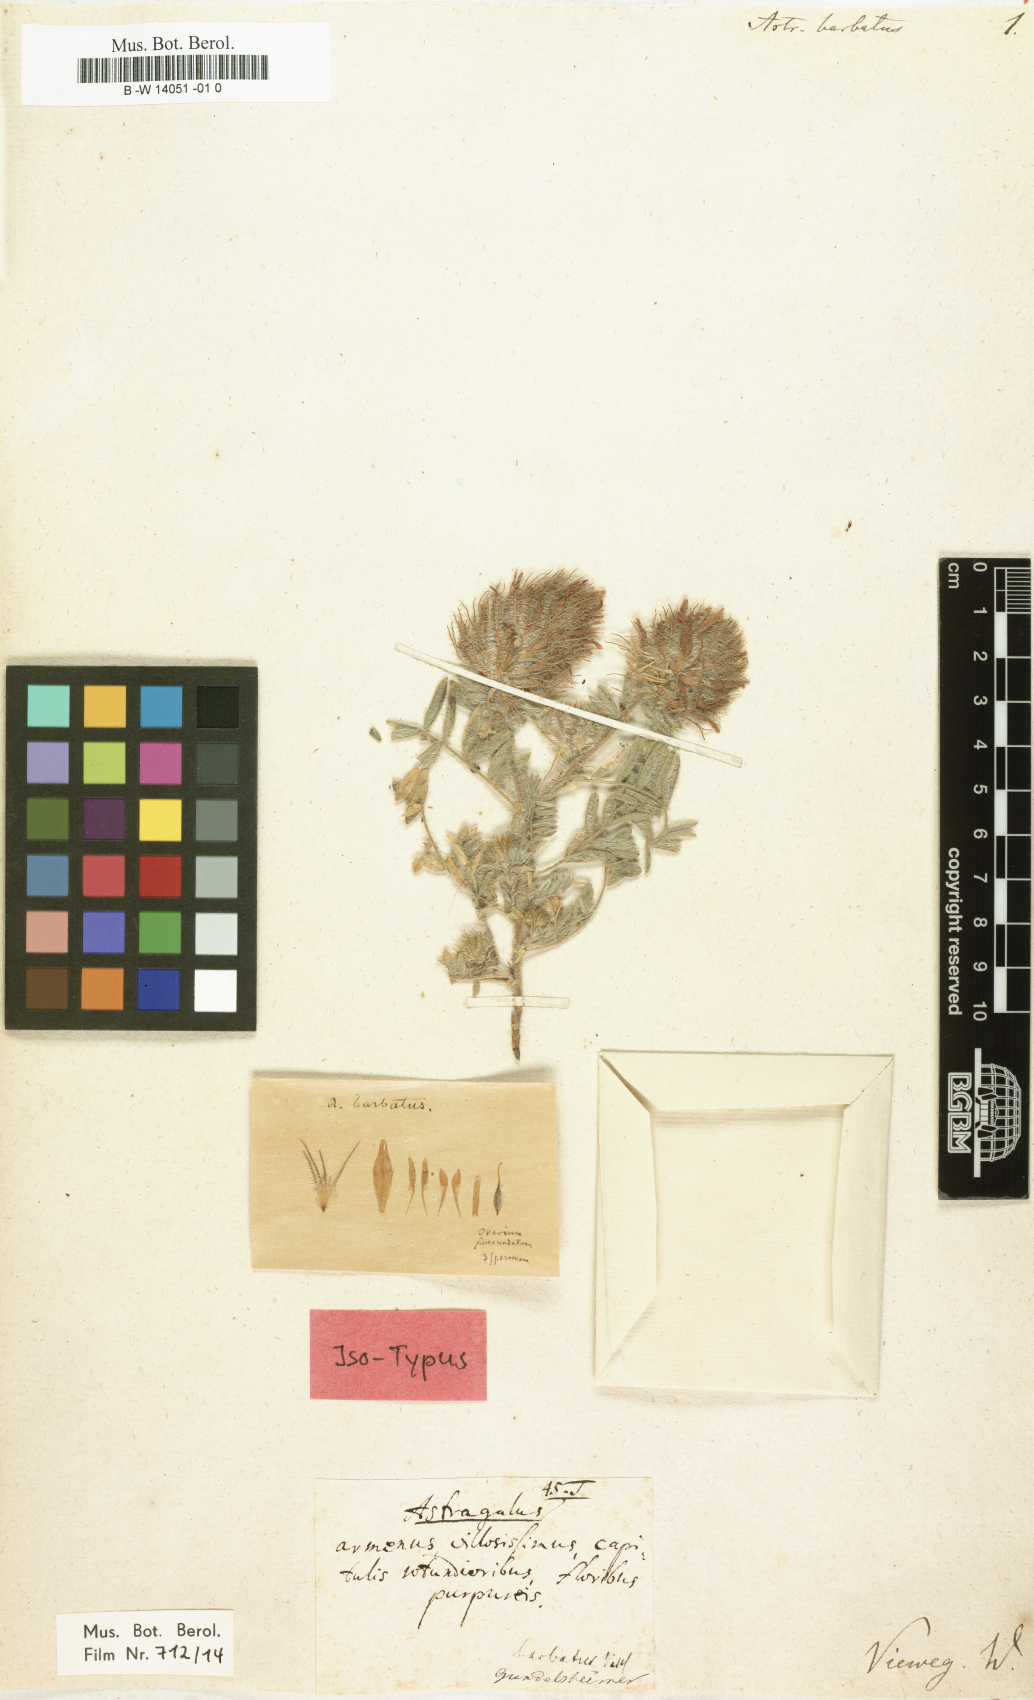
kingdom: Plantae
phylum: Tracheophyta
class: Magnoliopsida
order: Fabales
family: Fabaceae
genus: Astragalus
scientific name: Astragalus barbatus
